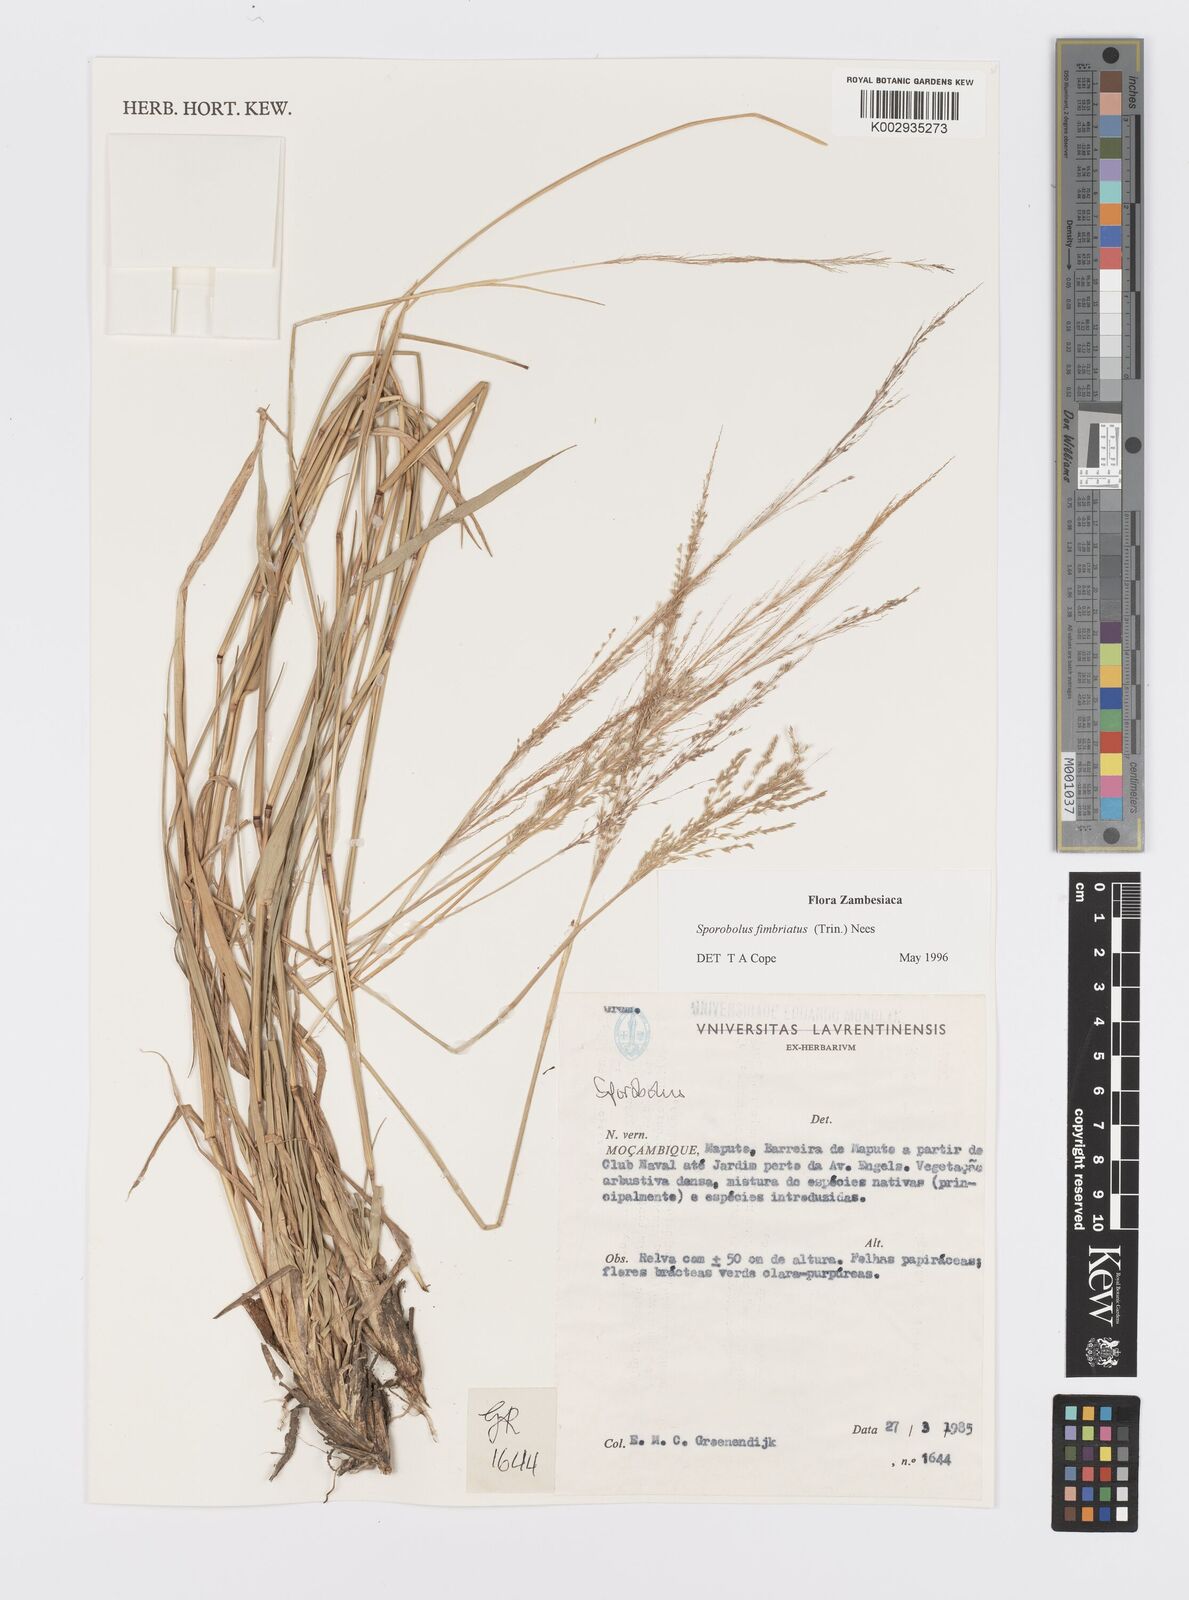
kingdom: Plantae
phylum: Tracheophyta
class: Liliopsida
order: Poales
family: Poaceae
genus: Sporobolus
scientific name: Sporobolus fimbriatus
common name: Fringed dropseed
